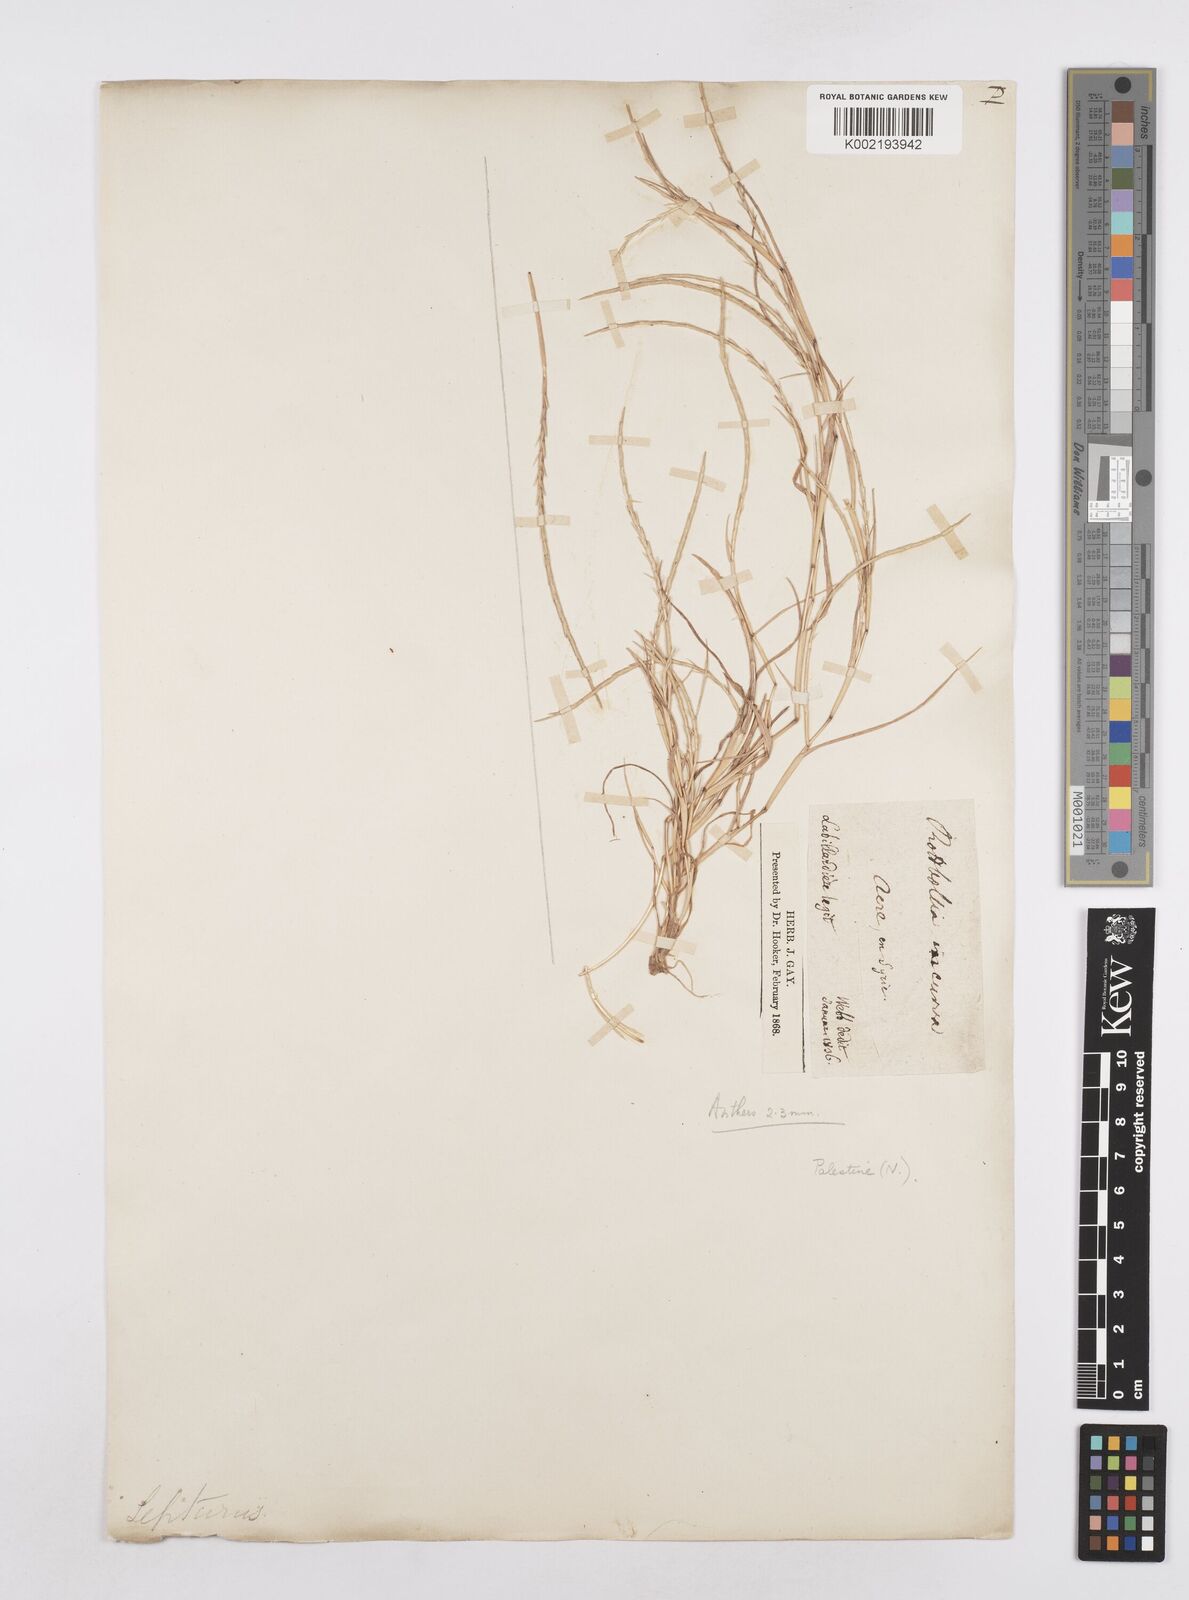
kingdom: Plantae
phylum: Tracheophyta
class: Liliopsida
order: Poales
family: Poaceae
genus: Parapholis
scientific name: Parapholis filiformis
